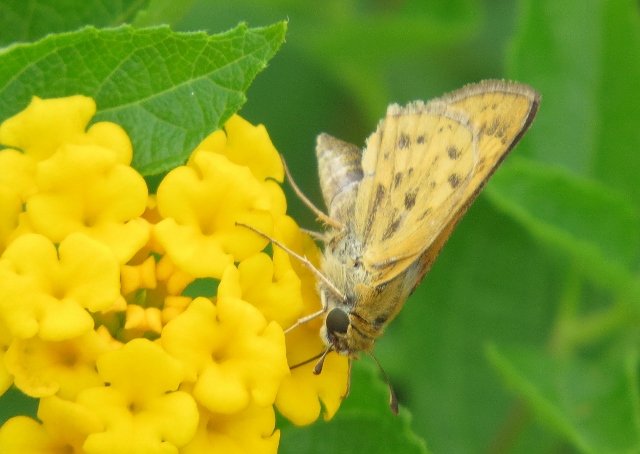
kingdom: Animalia
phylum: Arthropoda
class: Insecta
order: Lepidoptera
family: Hesperiidae
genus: Hylephila
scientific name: Hylephila phyleus
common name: Fiery Skipper
